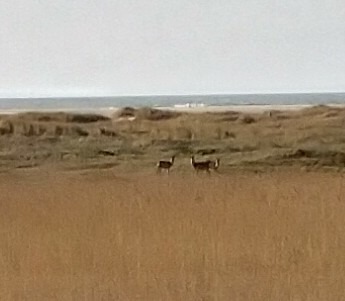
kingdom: Animalia
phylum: Chordata
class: Mammalia
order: Artiodactyla
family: Cervidae
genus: Capreolus
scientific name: Capreolus capreolus
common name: Rådyr
